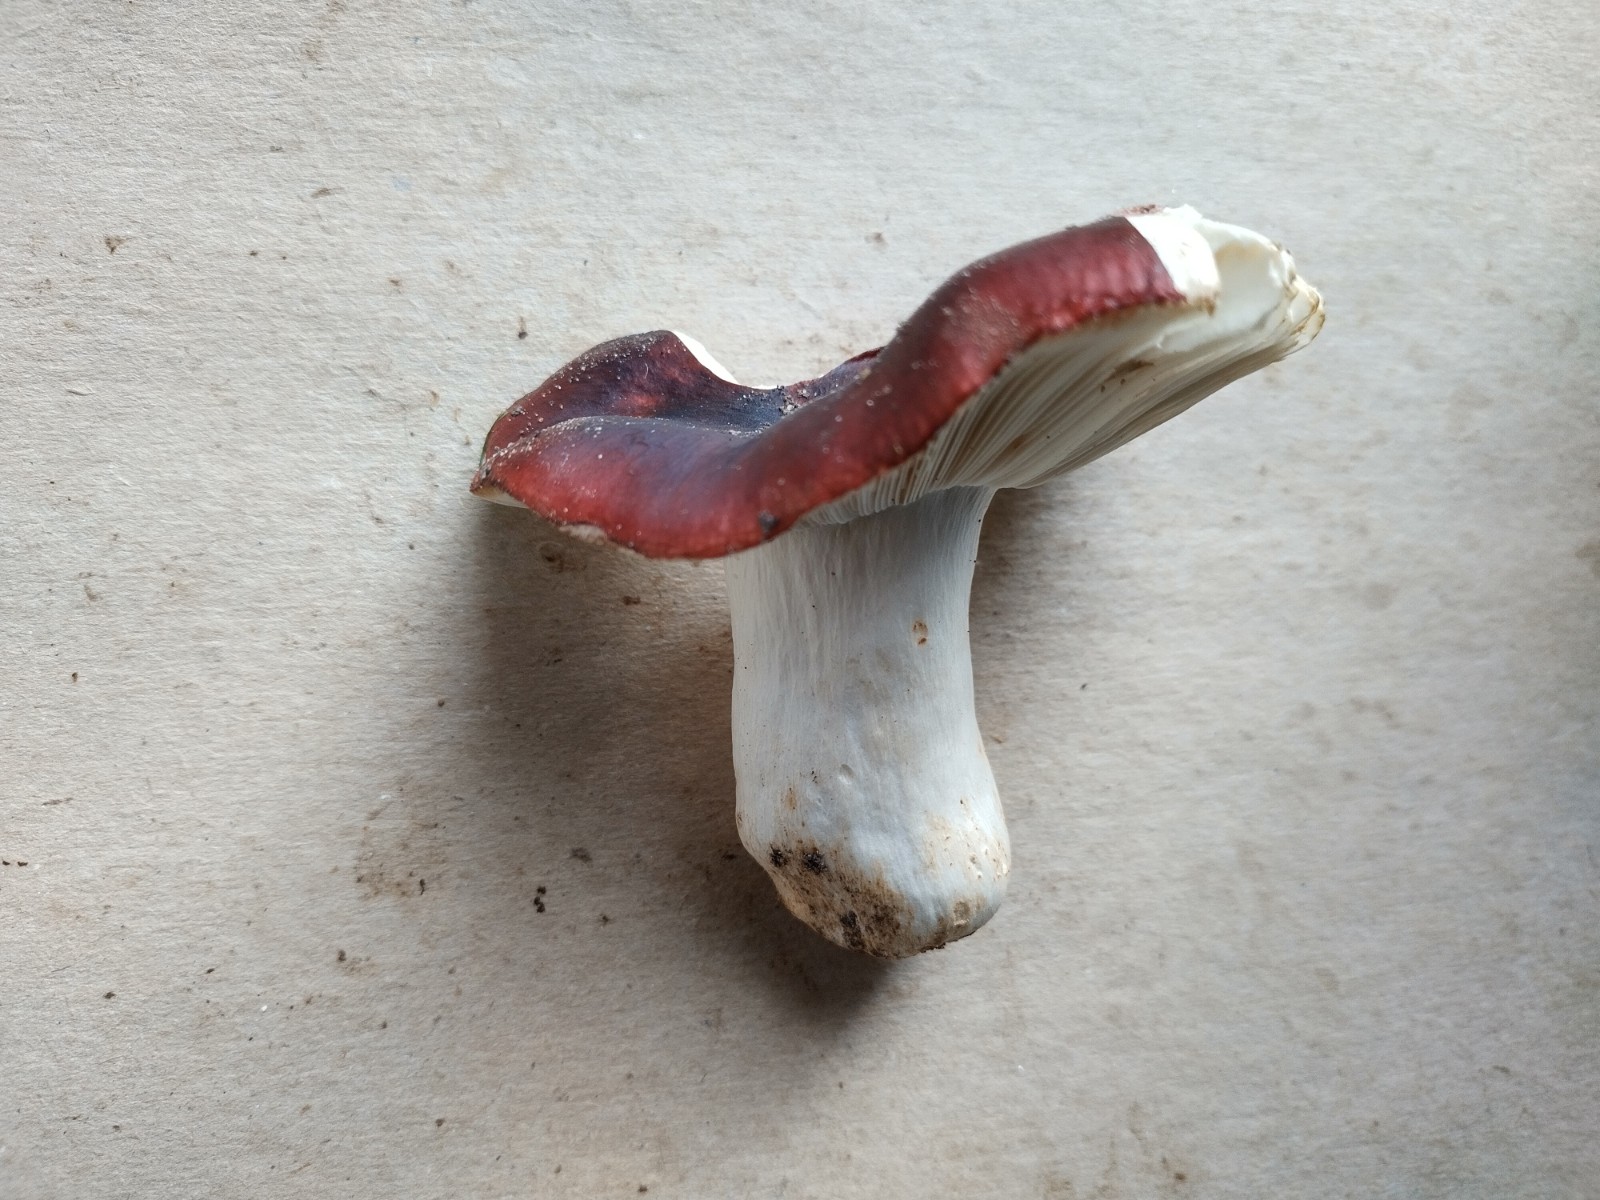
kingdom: Fungi
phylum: Basidiomycota
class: Agaricomycetes
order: Russulales
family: Russulaceae
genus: Russula
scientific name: Russula melliolens
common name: honning-skørhat
